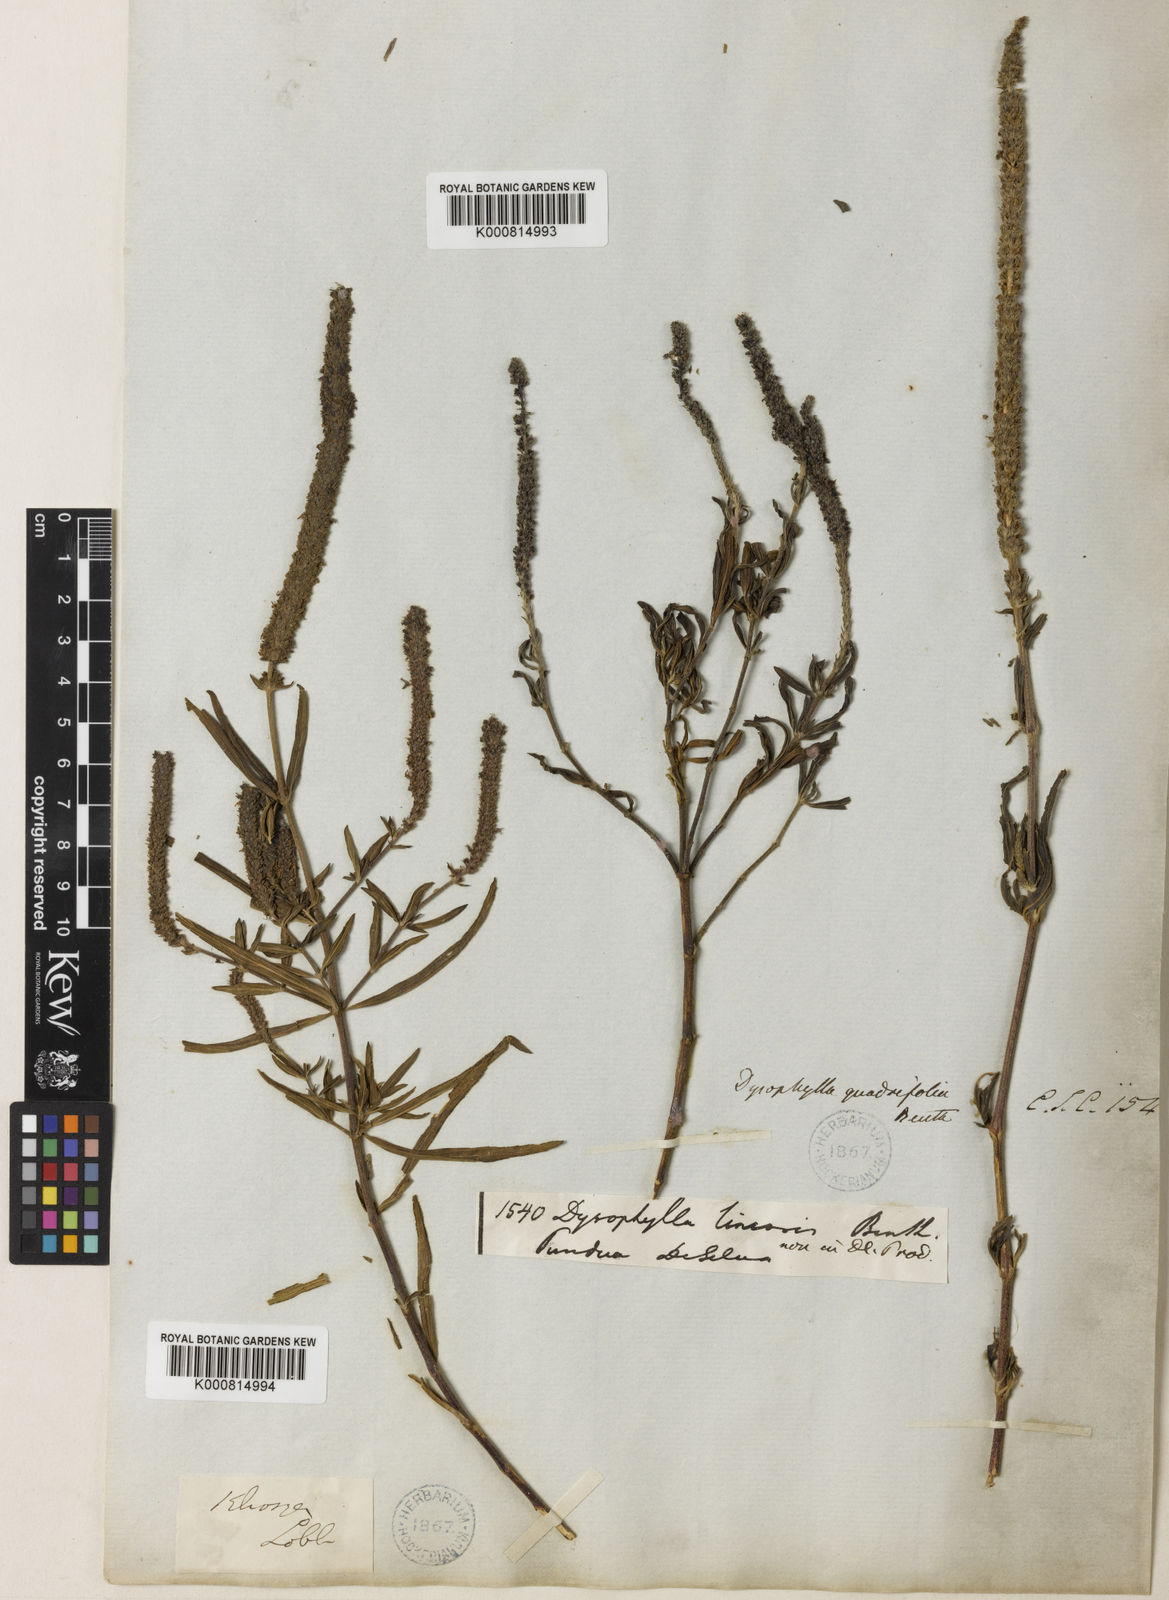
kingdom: Plantae
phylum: Tracheophyta
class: Magnoliopsida
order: Lamiales
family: Lamiaceae
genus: Pogostemon
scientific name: Pogostemon quadrifolius
